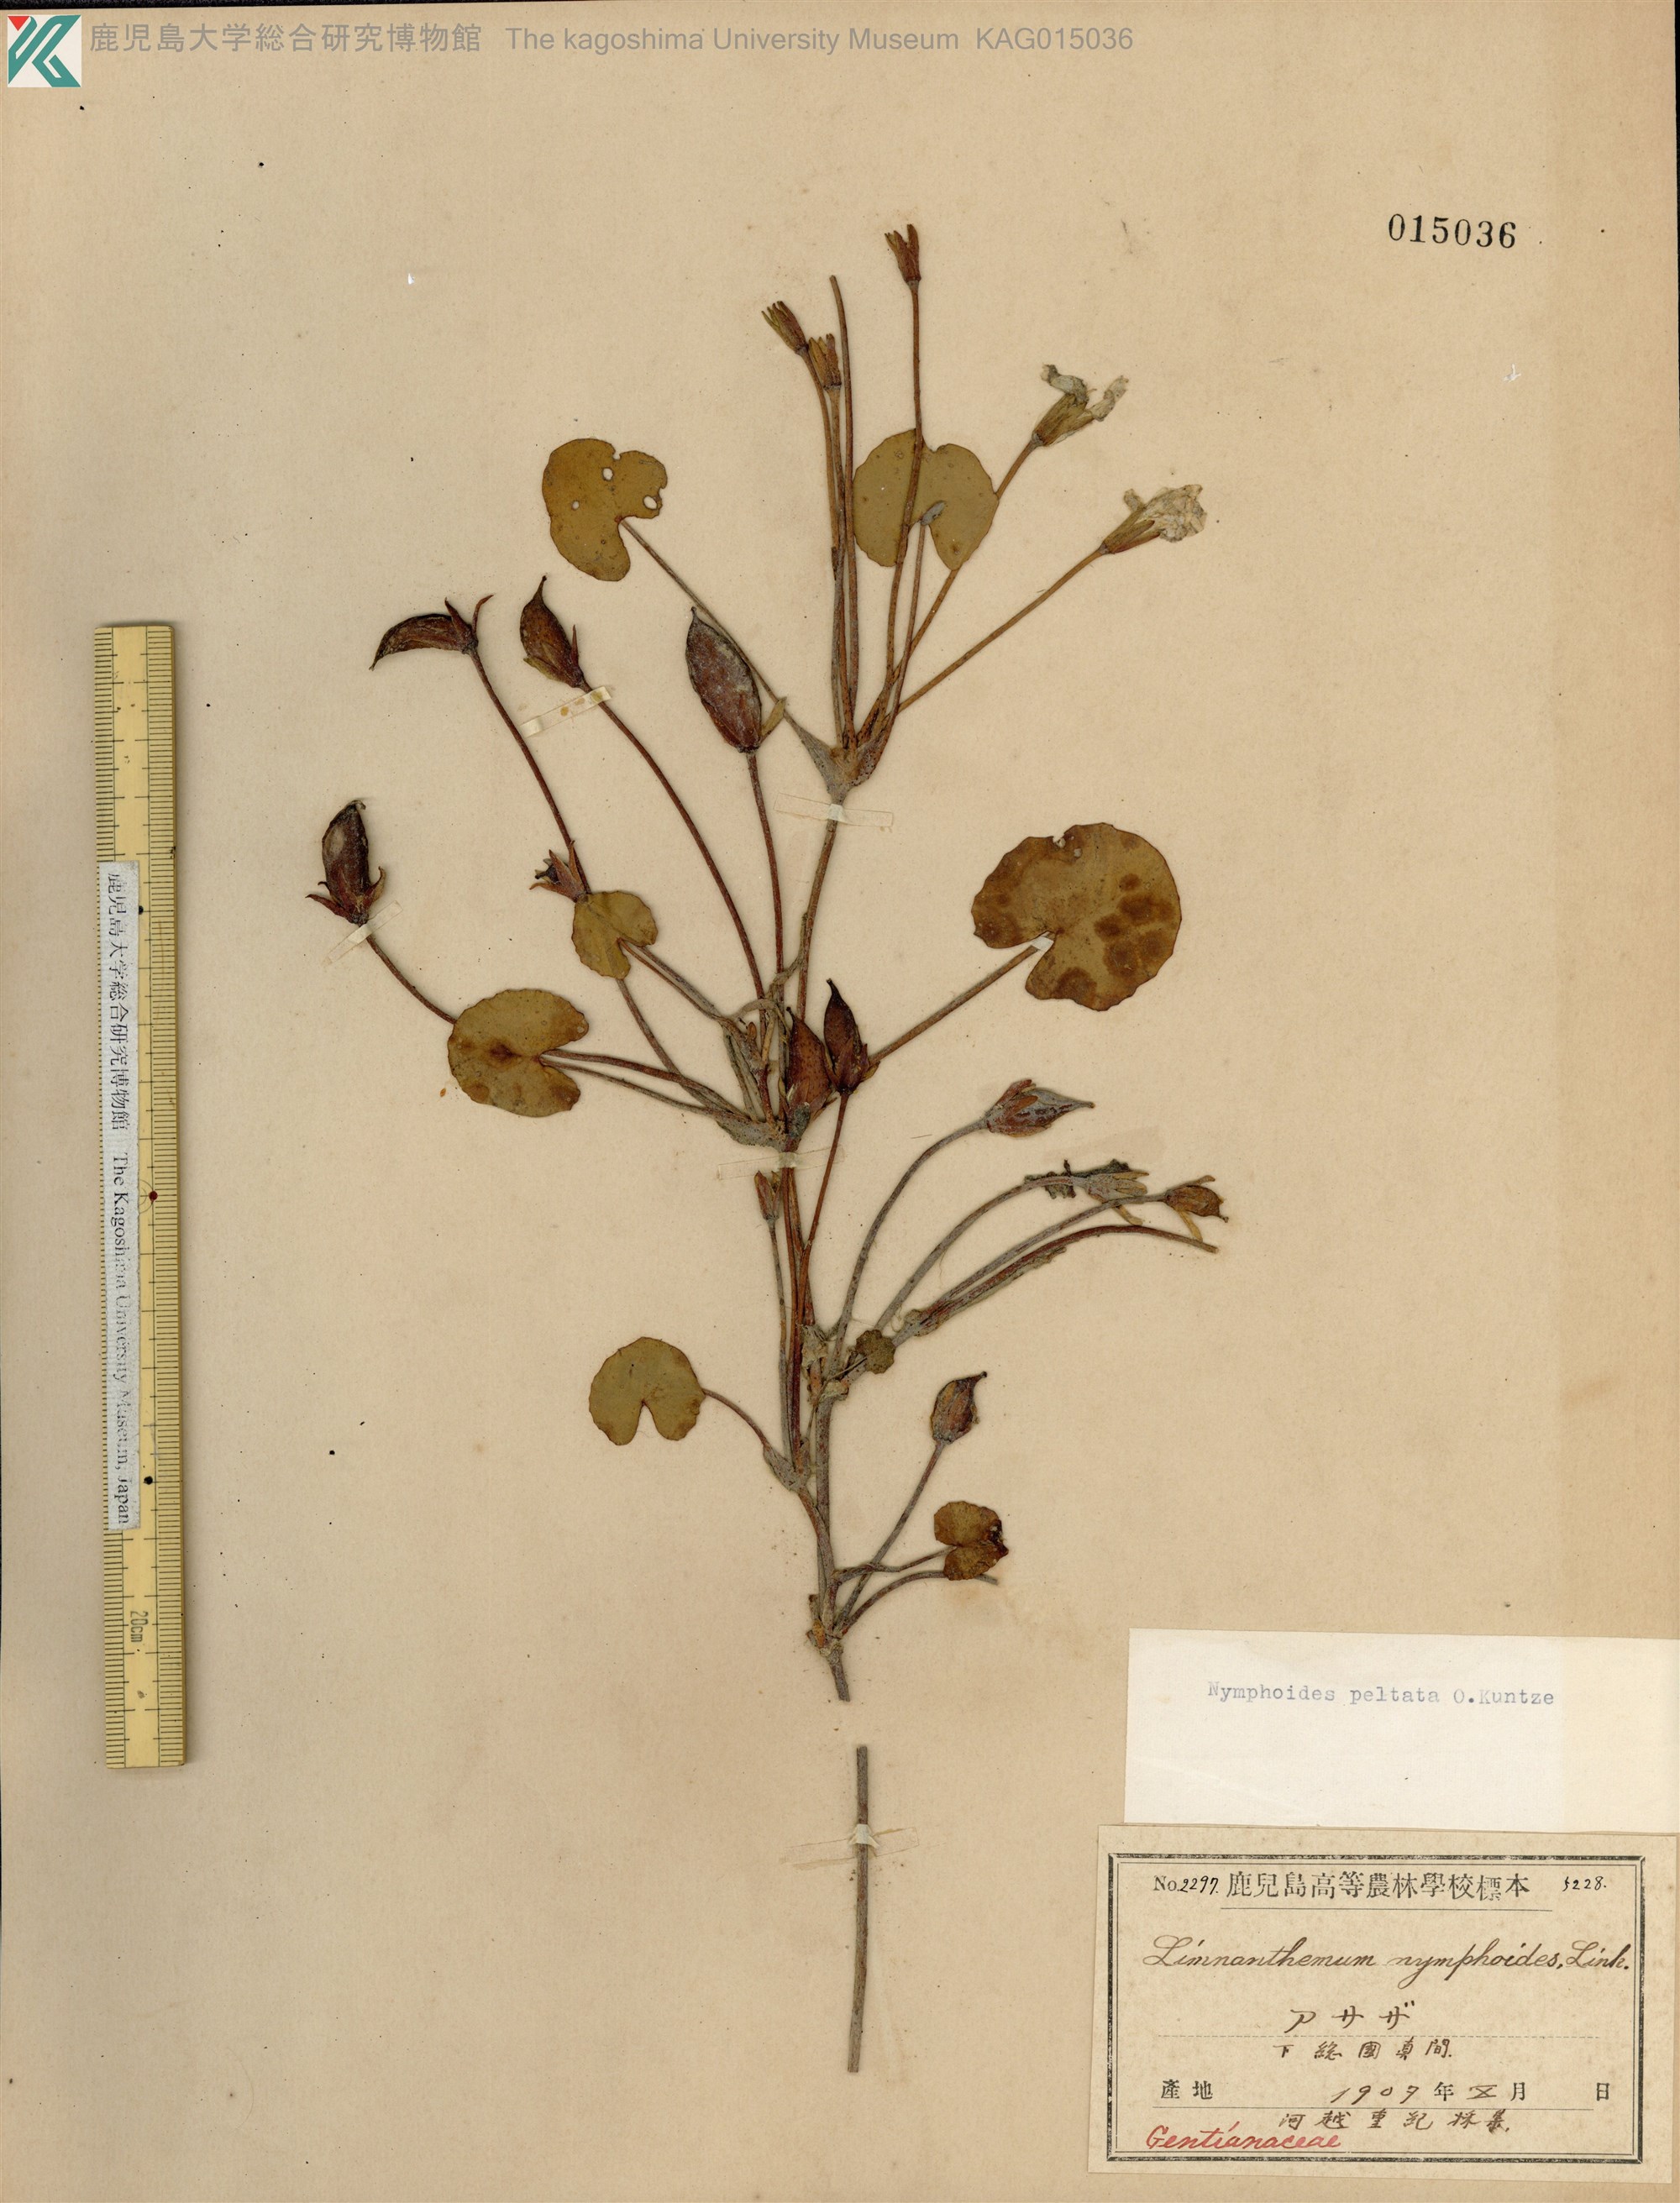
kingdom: Plantae
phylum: Tracheophyta
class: Magnoliopsida
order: Asterales
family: Menyanthaceae
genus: Nymphoides
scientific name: Nymphoides peltata
